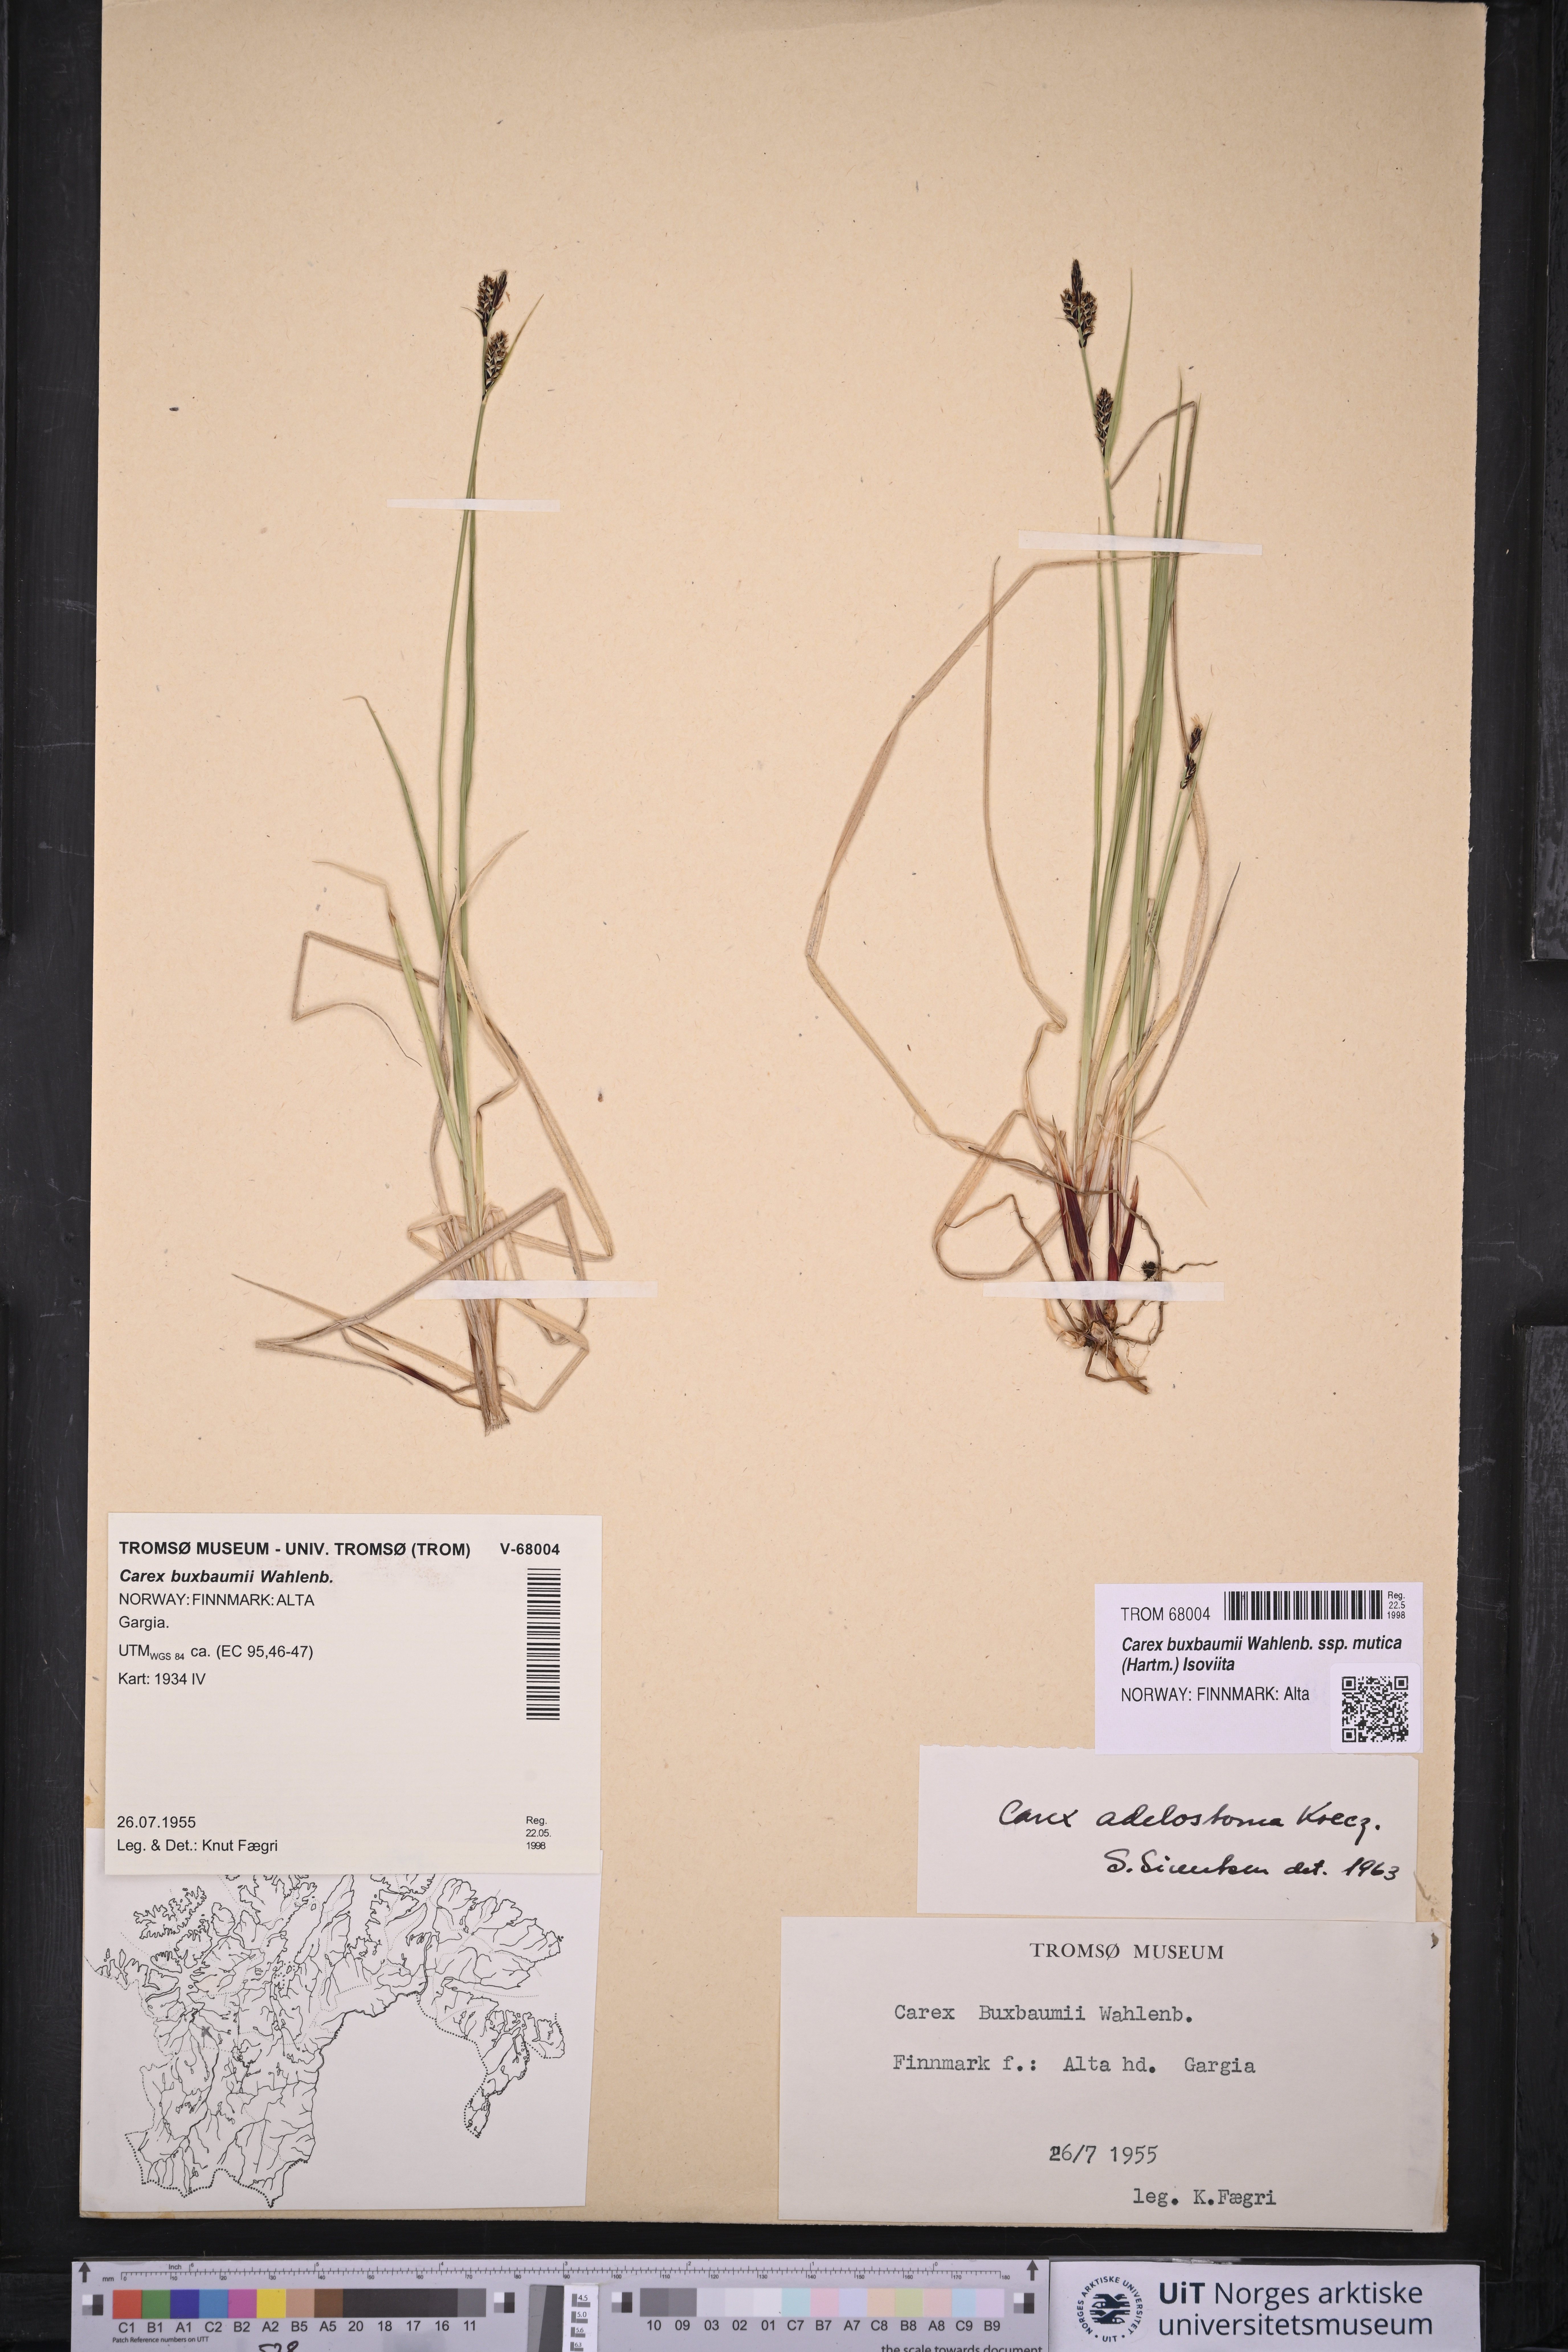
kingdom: Plantae
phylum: Tracheophyta
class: Liliopsida
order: Poales
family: Cyperaceae
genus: Carex
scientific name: Carex adelostoma
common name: Circumpolar sedge
